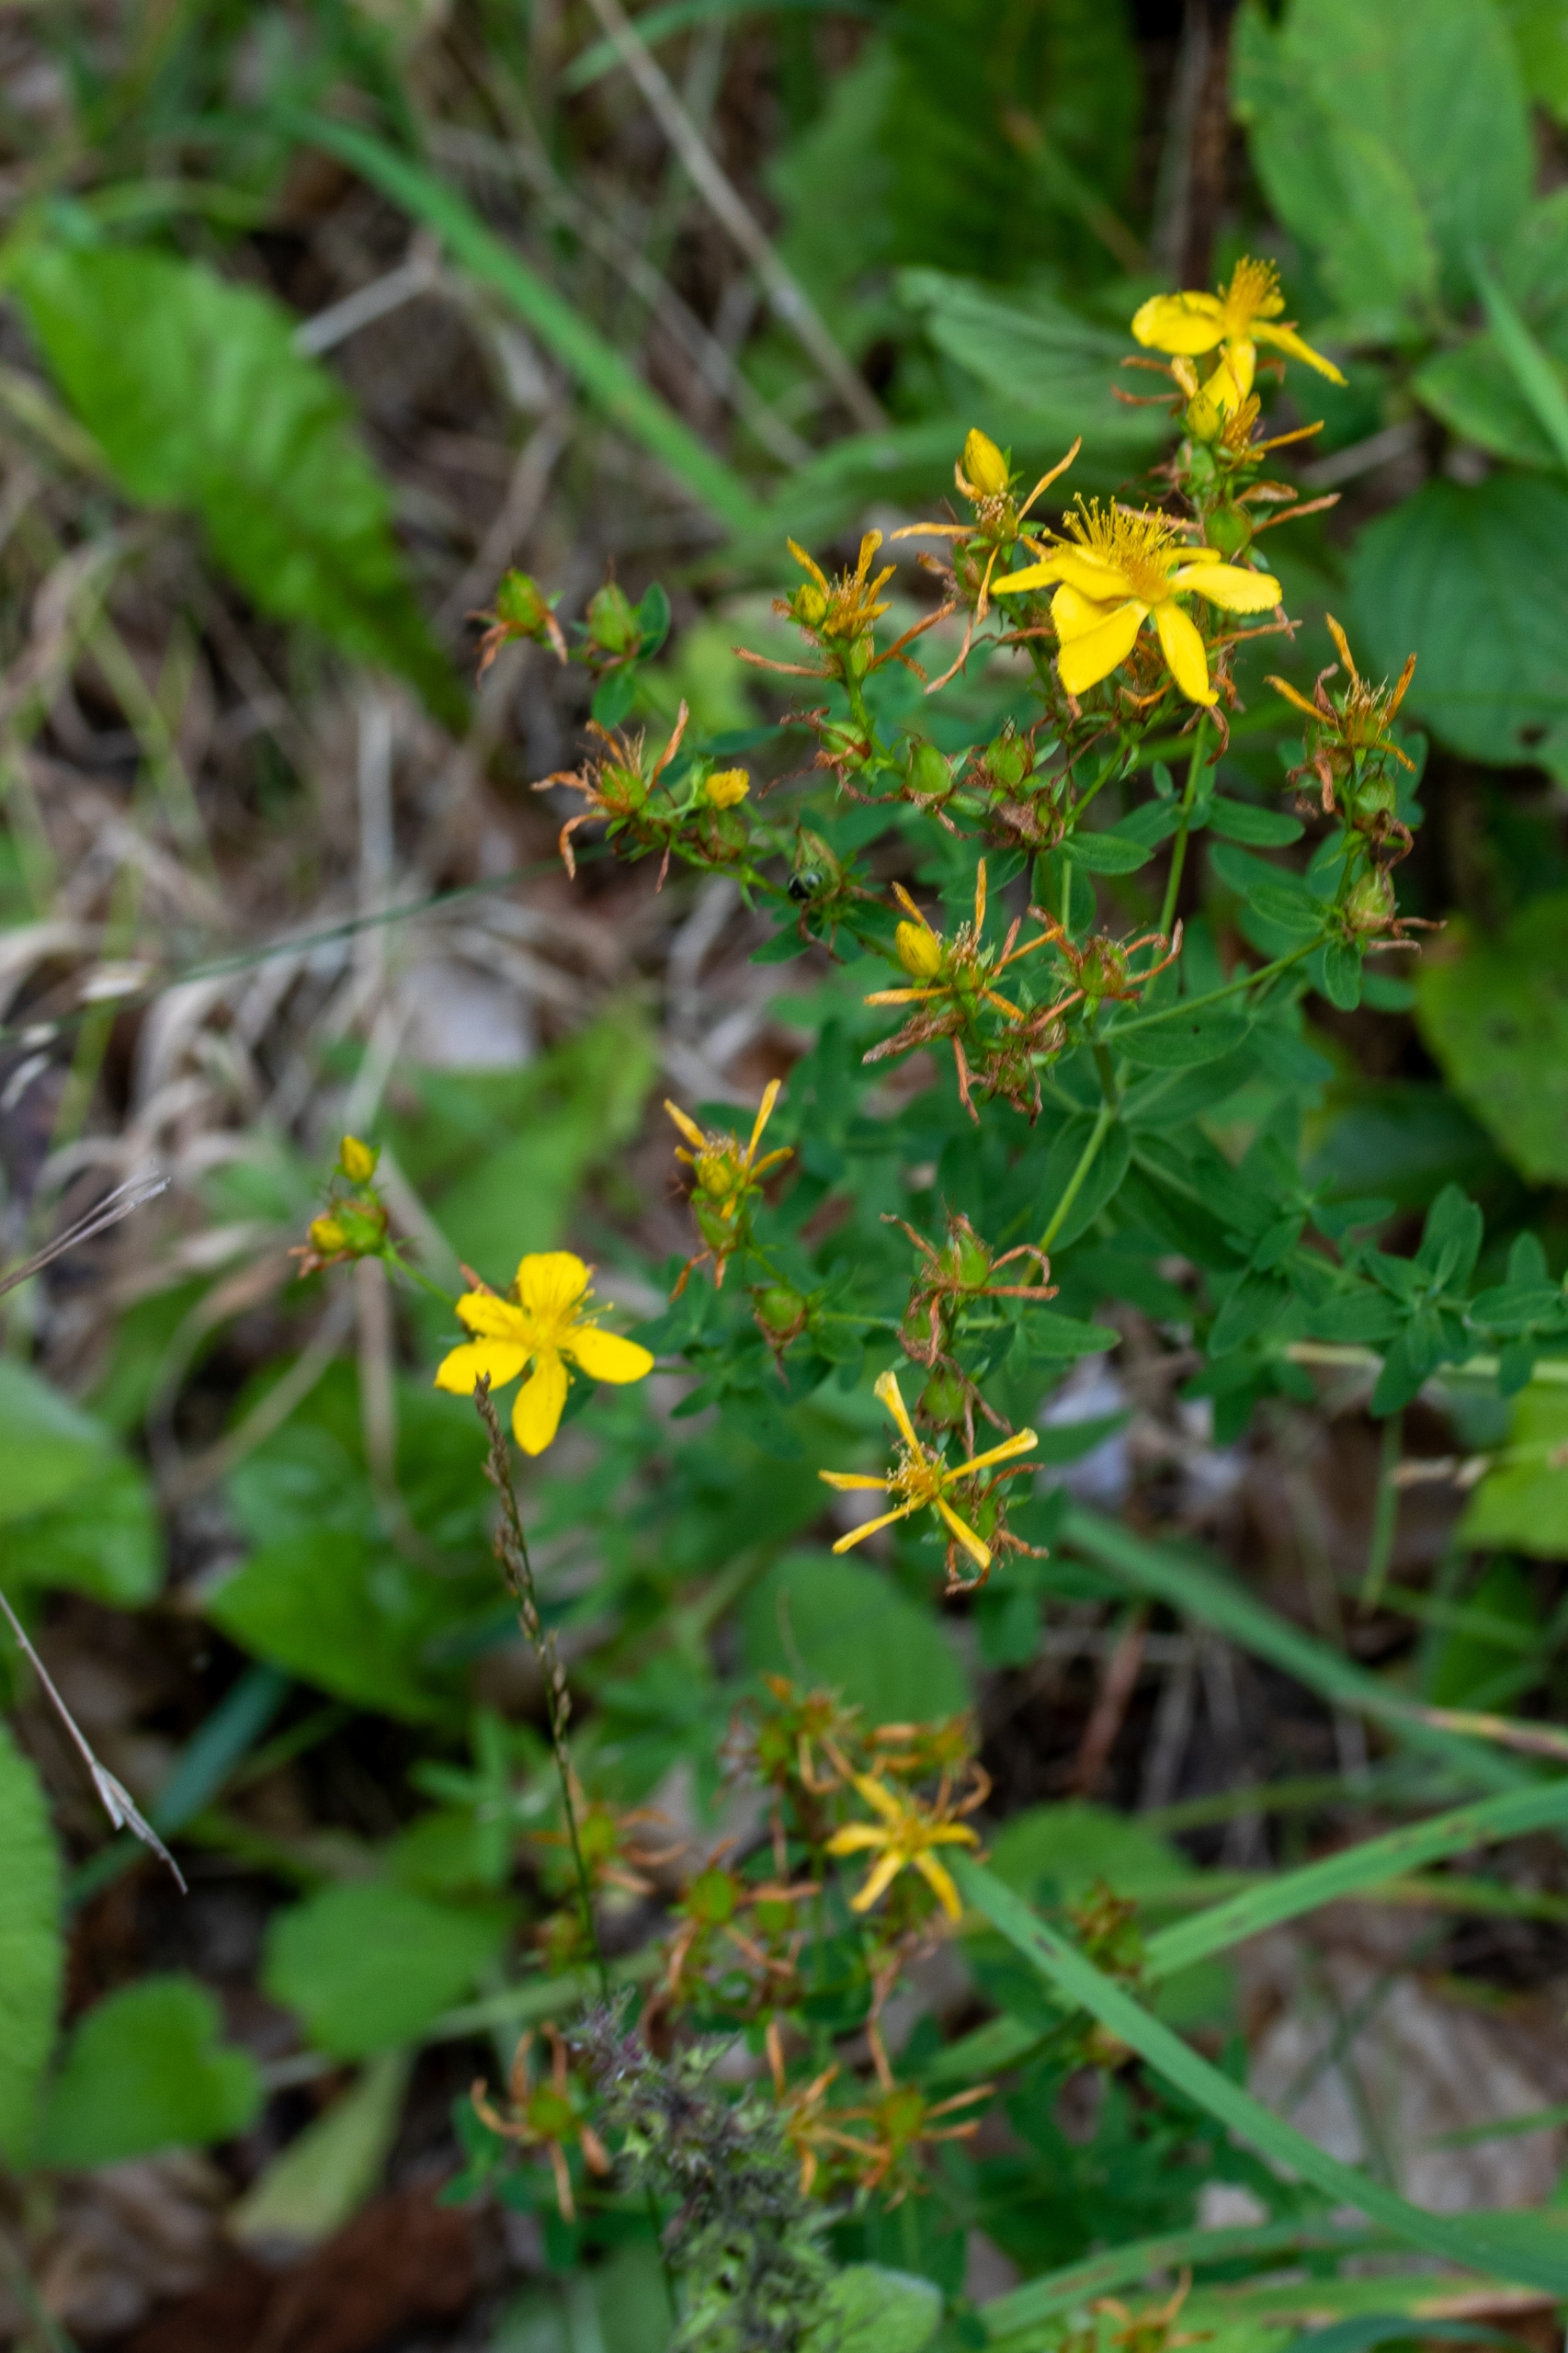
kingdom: Plantae
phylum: Tracheophyta
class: Magnoliopsida
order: Malpighiales
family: Hypericaceae
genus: Hypericum
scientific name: Hypericum perforatum
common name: Prikbladet perikon
